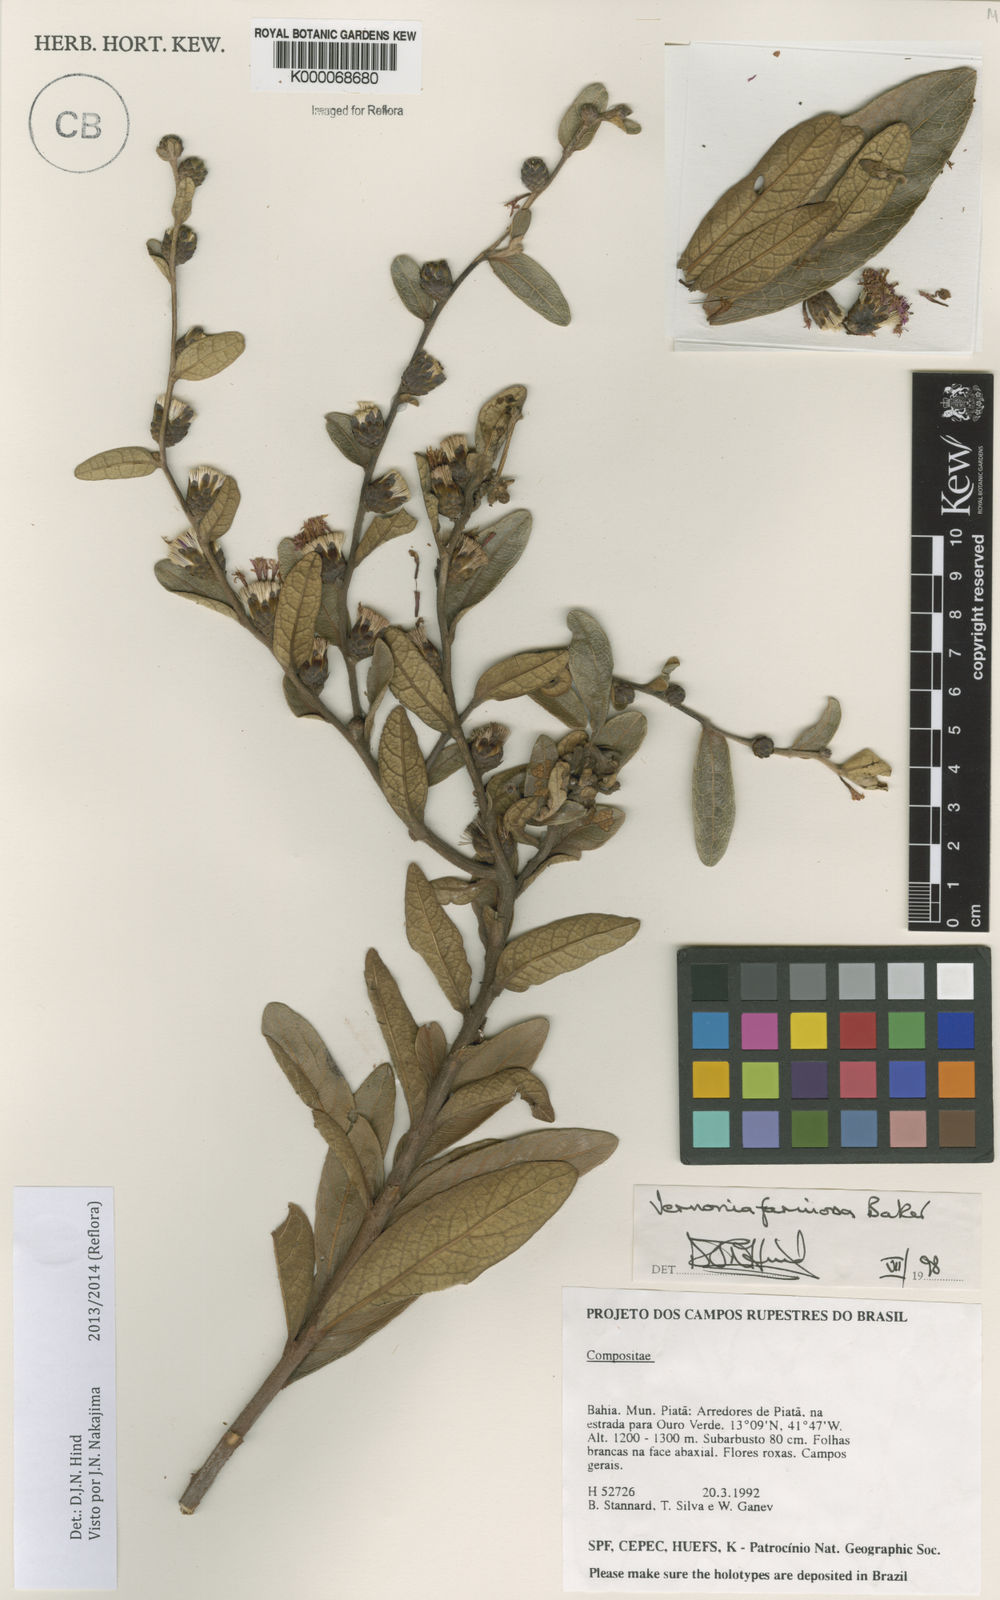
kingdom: Plantae
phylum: Tracheophyta
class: Magnoliopsida
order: Asterales
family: Asteraceae
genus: Lessingianthus
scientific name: Lessingianthus farinosus
